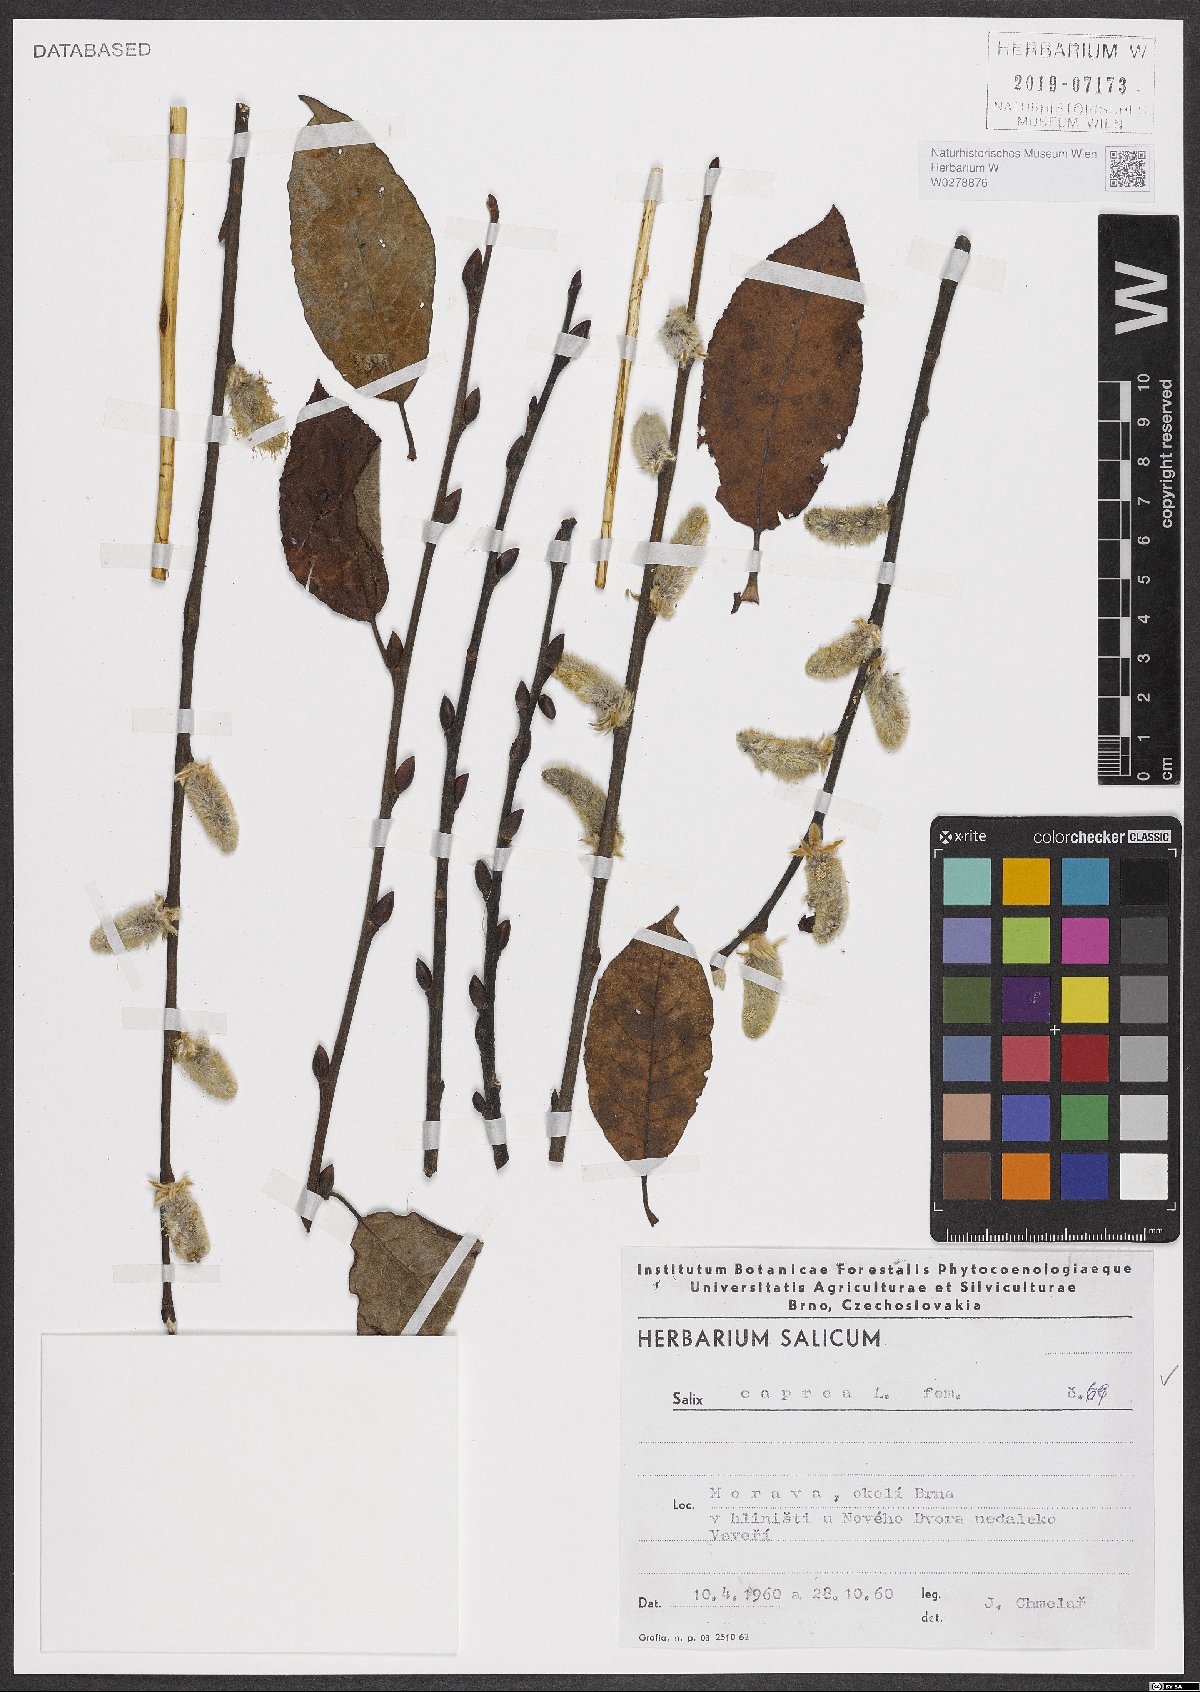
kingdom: Plantae
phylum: Tracheophyta
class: Magnoliopsida
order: Malpighiales
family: Salicaceae
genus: Salix
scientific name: Salix caprea
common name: Goat willow
